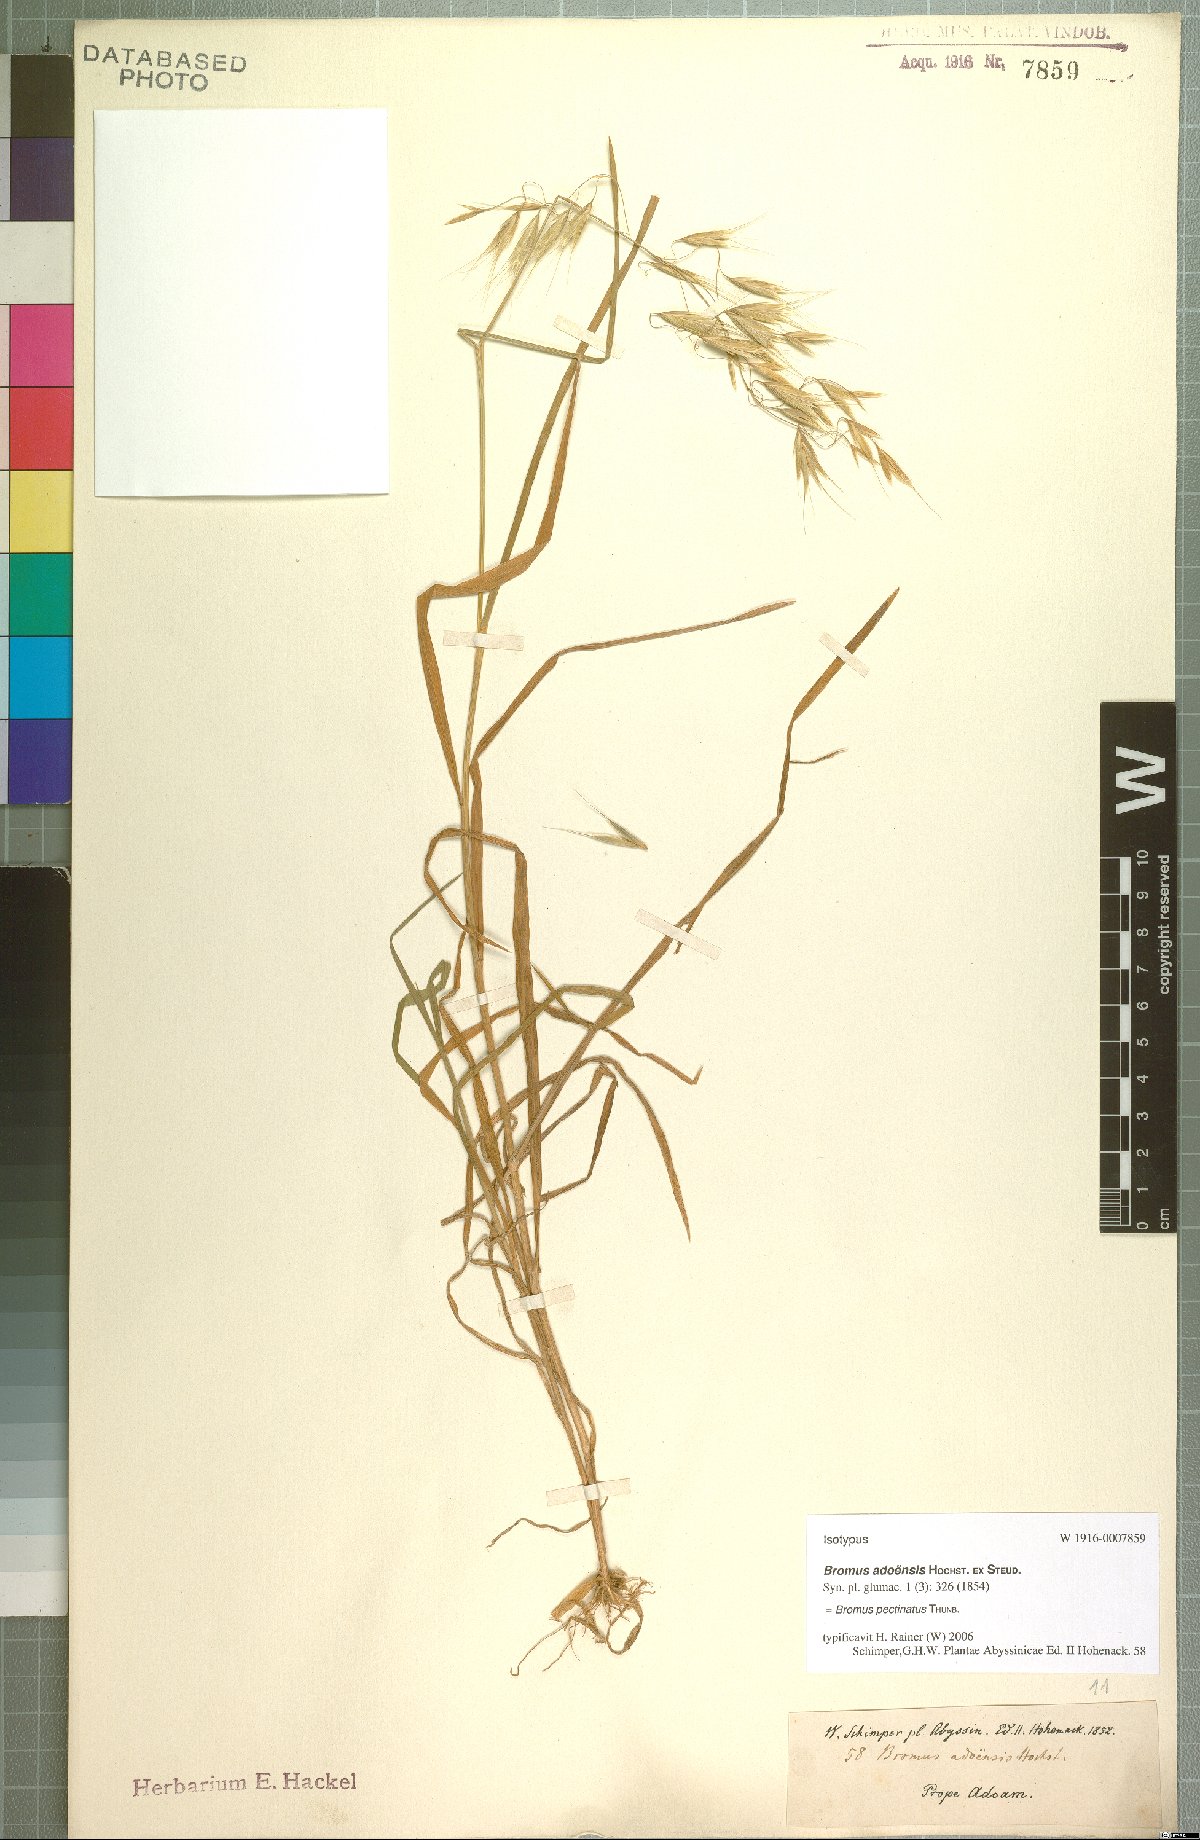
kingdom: Plantae
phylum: Tracheophyta
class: Liliopsida
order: Poales
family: Poaceae
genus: Bromus
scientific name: Bromus pectinatus
